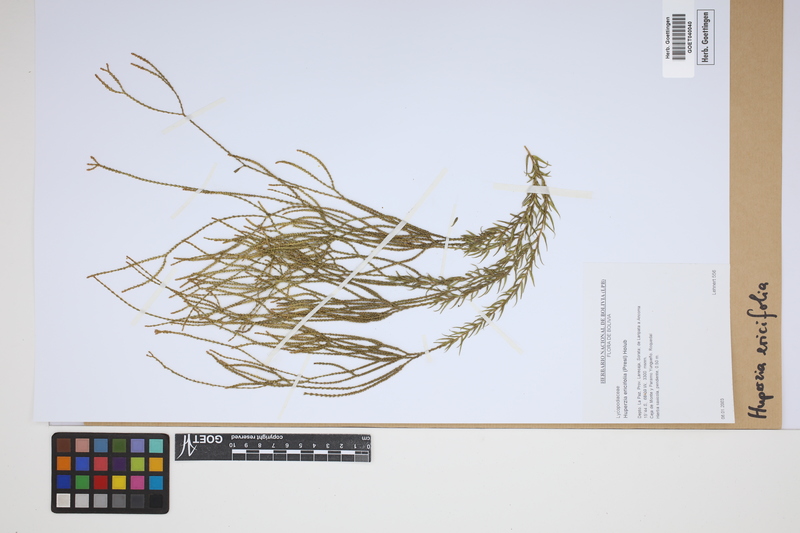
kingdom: Plantae
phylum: Tracheophyta
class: Lycopodiopsida
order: Lycopodiales
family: Lycopodiaceae
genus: Phlegmariurus
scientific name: Phlegmariurus ericifolius
